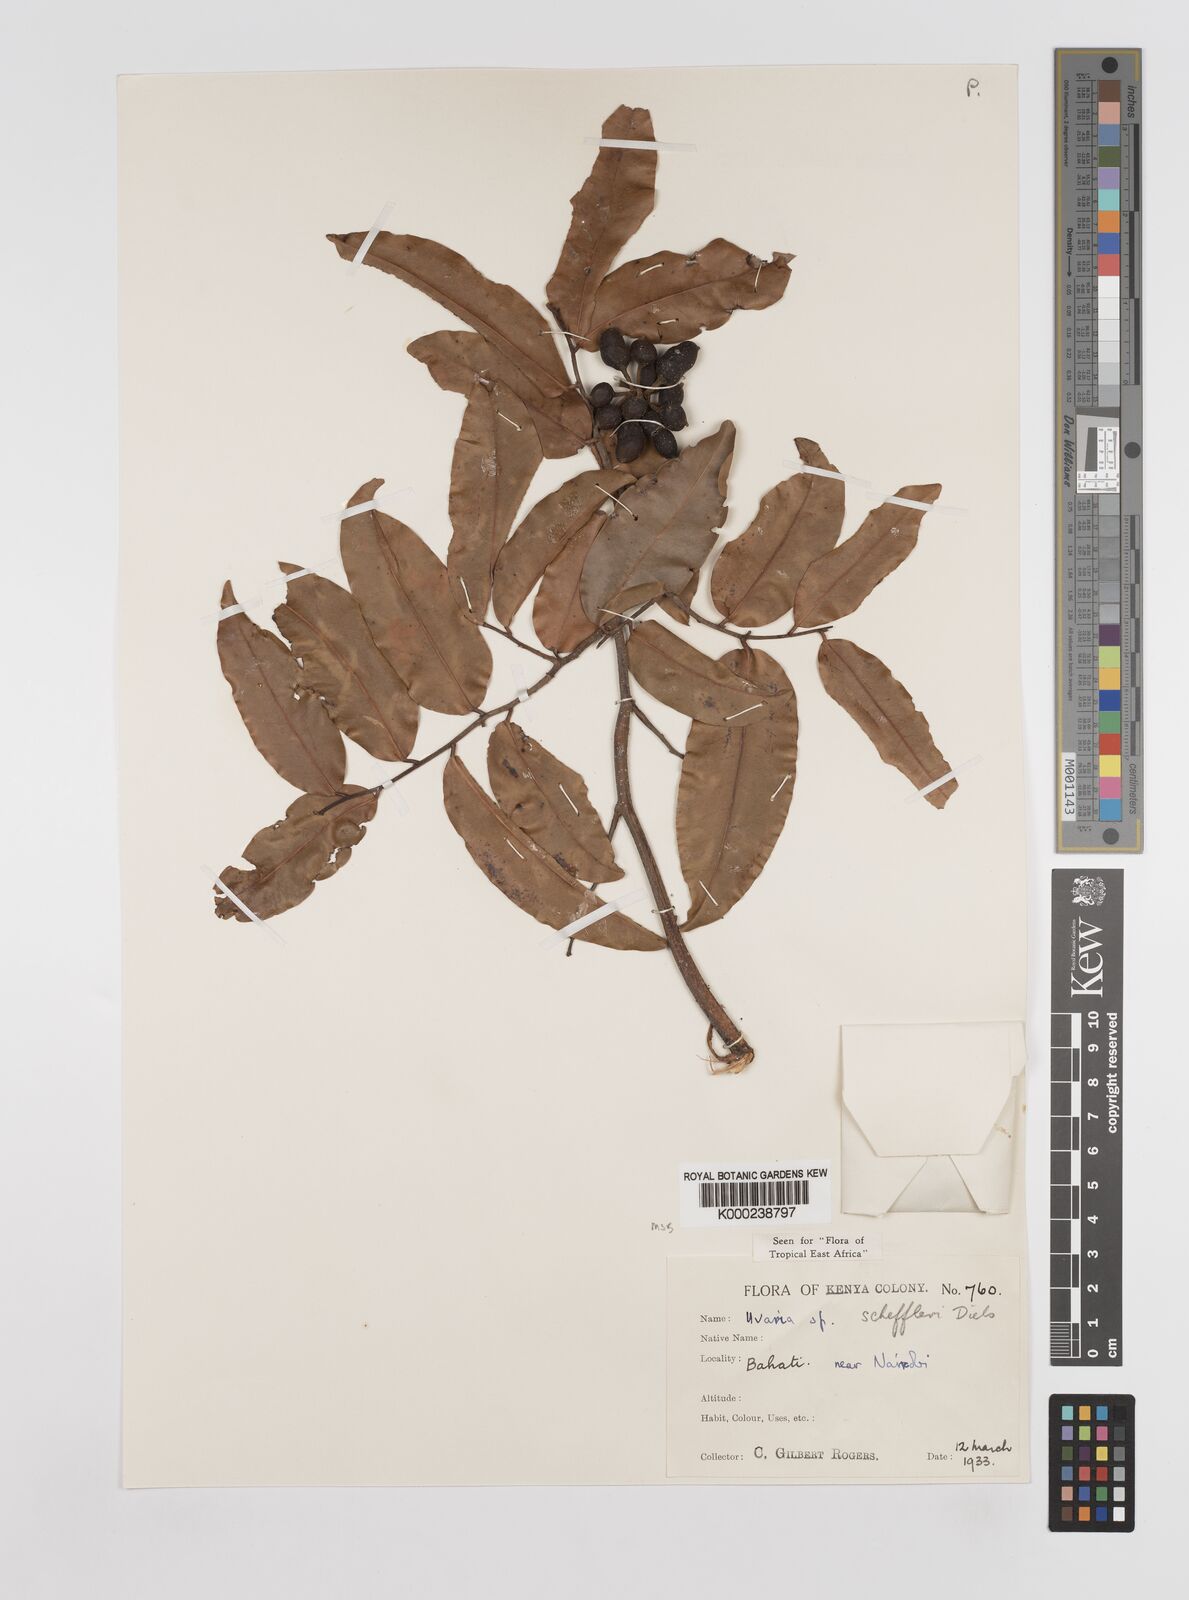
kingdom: Plantae
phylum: Tracheophyta
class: Magnoliopsida
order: Magnoliales
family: Annonaceae
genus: Uvaria
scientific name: Uvaria scheffleri
